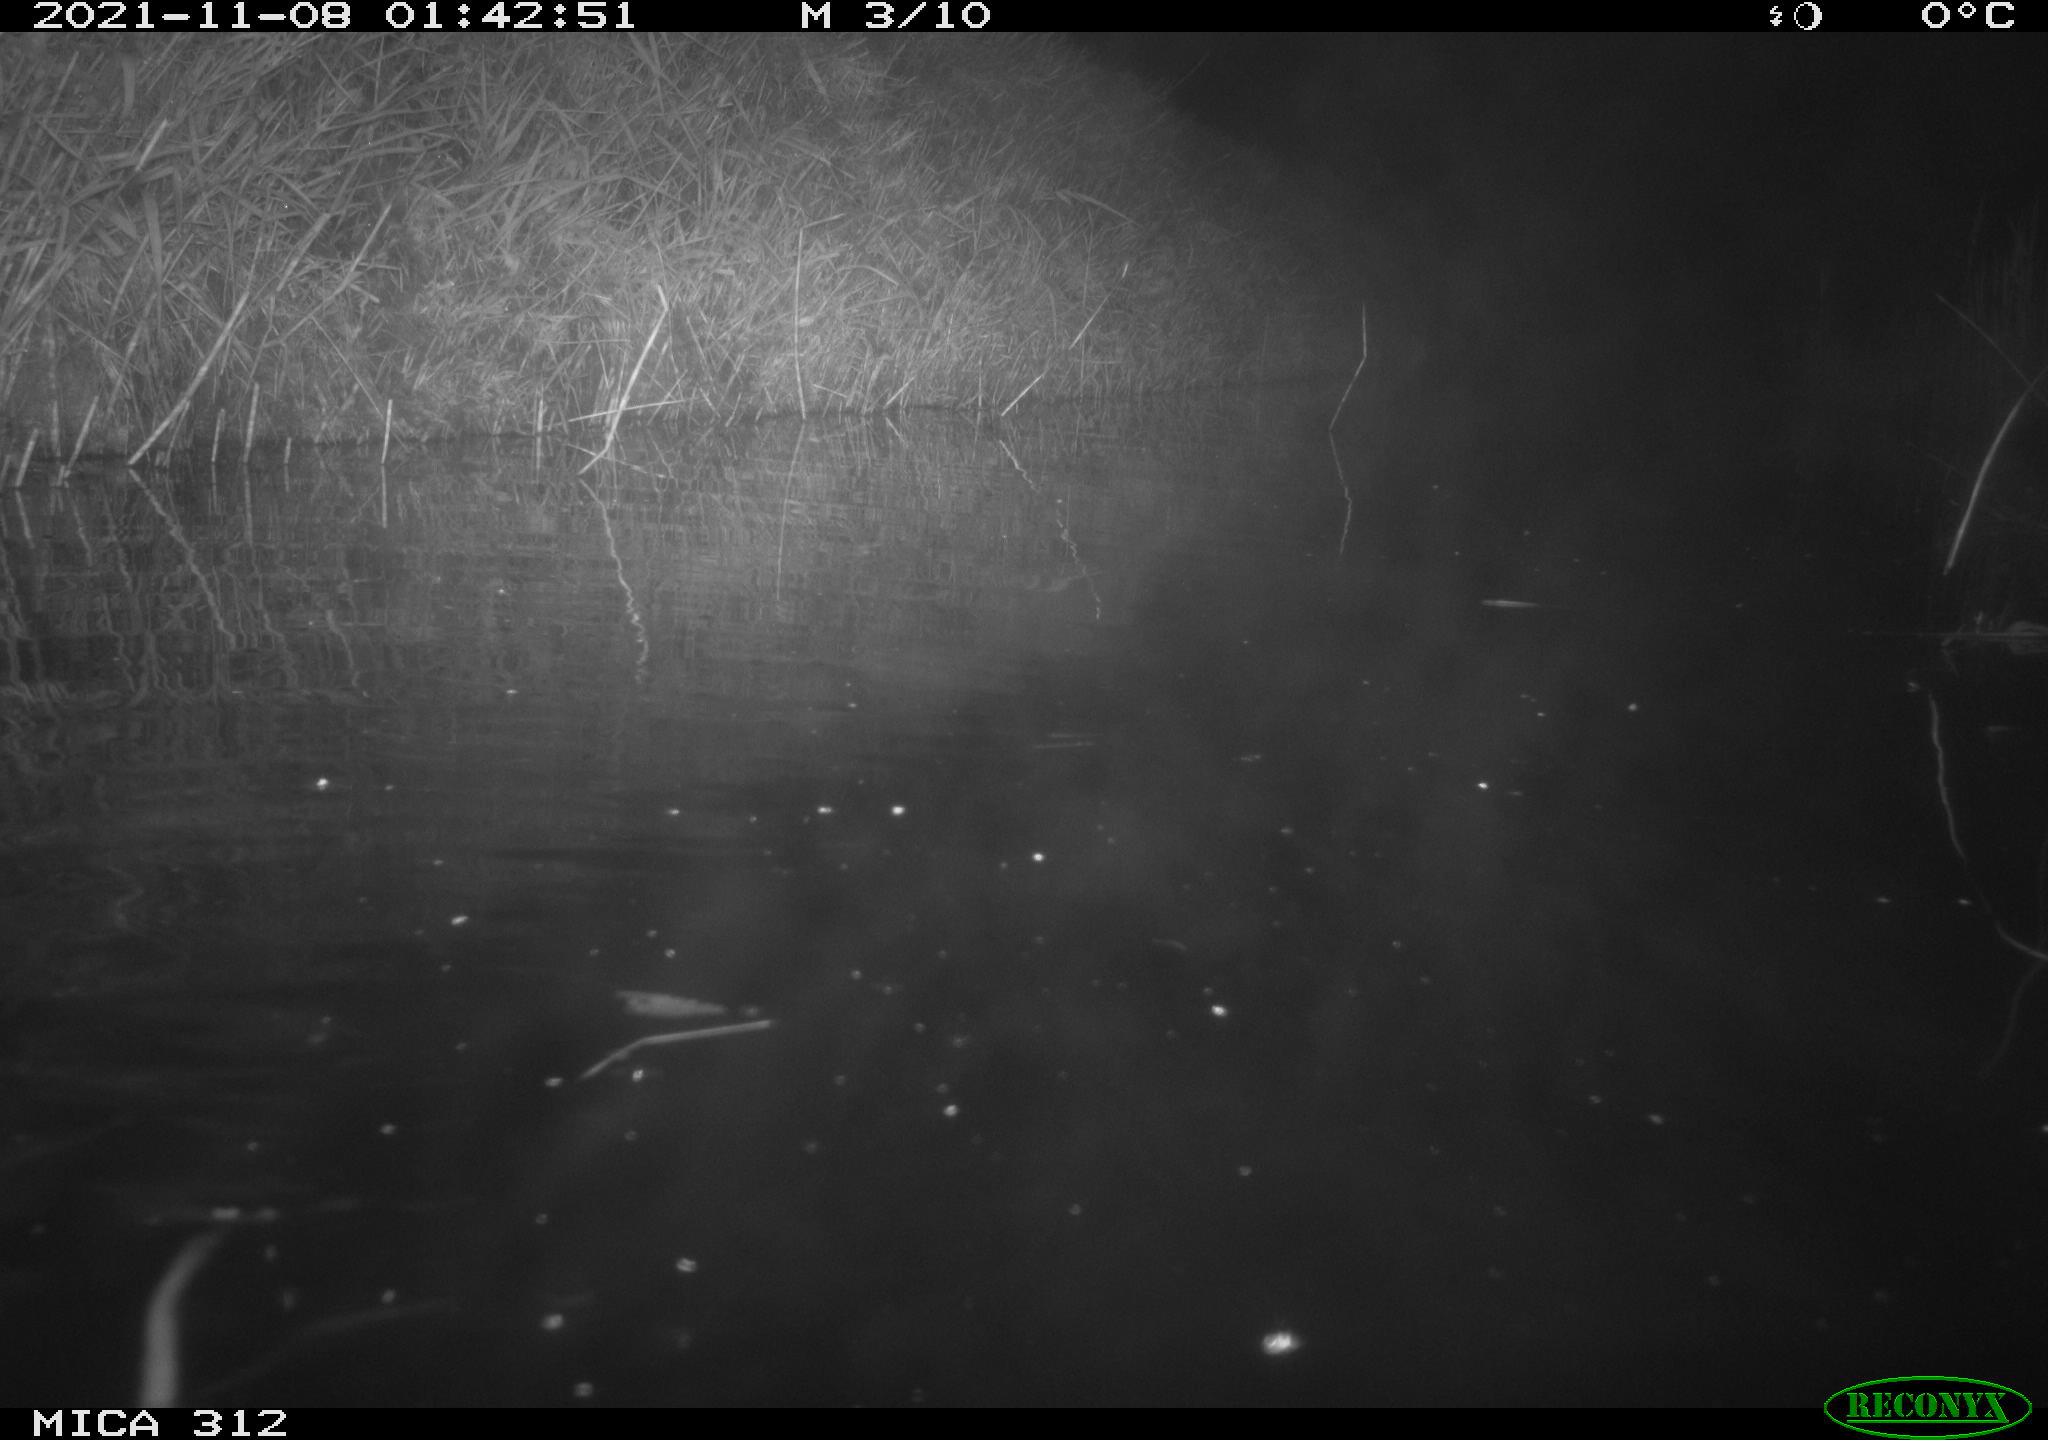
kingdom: Animalia
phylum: Chordata
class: Mammalia
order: Rodentia
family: Muridae
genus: Rattus
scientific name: Rattus norvegicus
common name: Brown rat
